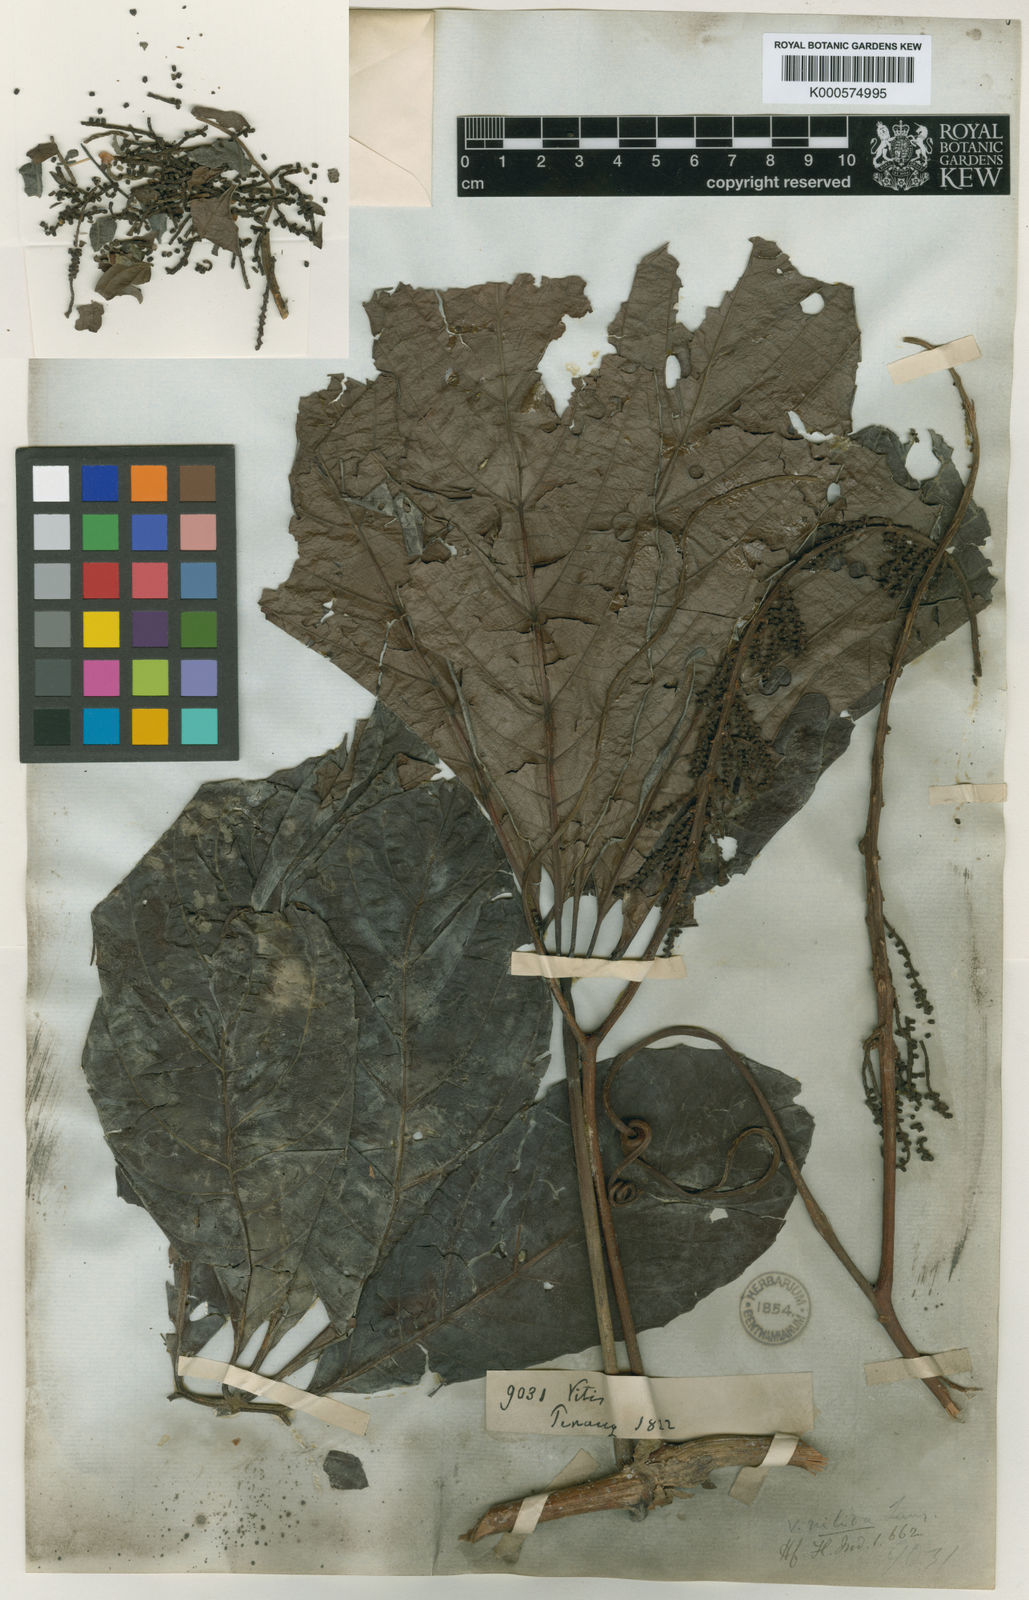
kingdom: Plantae
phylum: Tracheophyta
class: Magnoliopsida
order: Vitales
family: Vitaceae
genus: Ampelocissus
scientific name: Ampelocissus nitida
